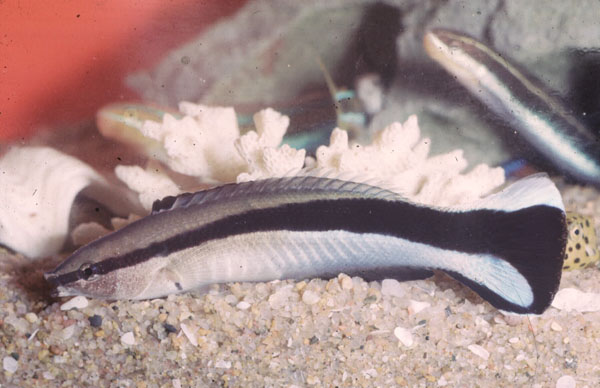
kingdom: Animalia
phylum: Chordata
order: Perciformes
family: Labridae
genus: Labroides
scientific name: Labroides dimidiatus
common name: Blue diesel wrasse
